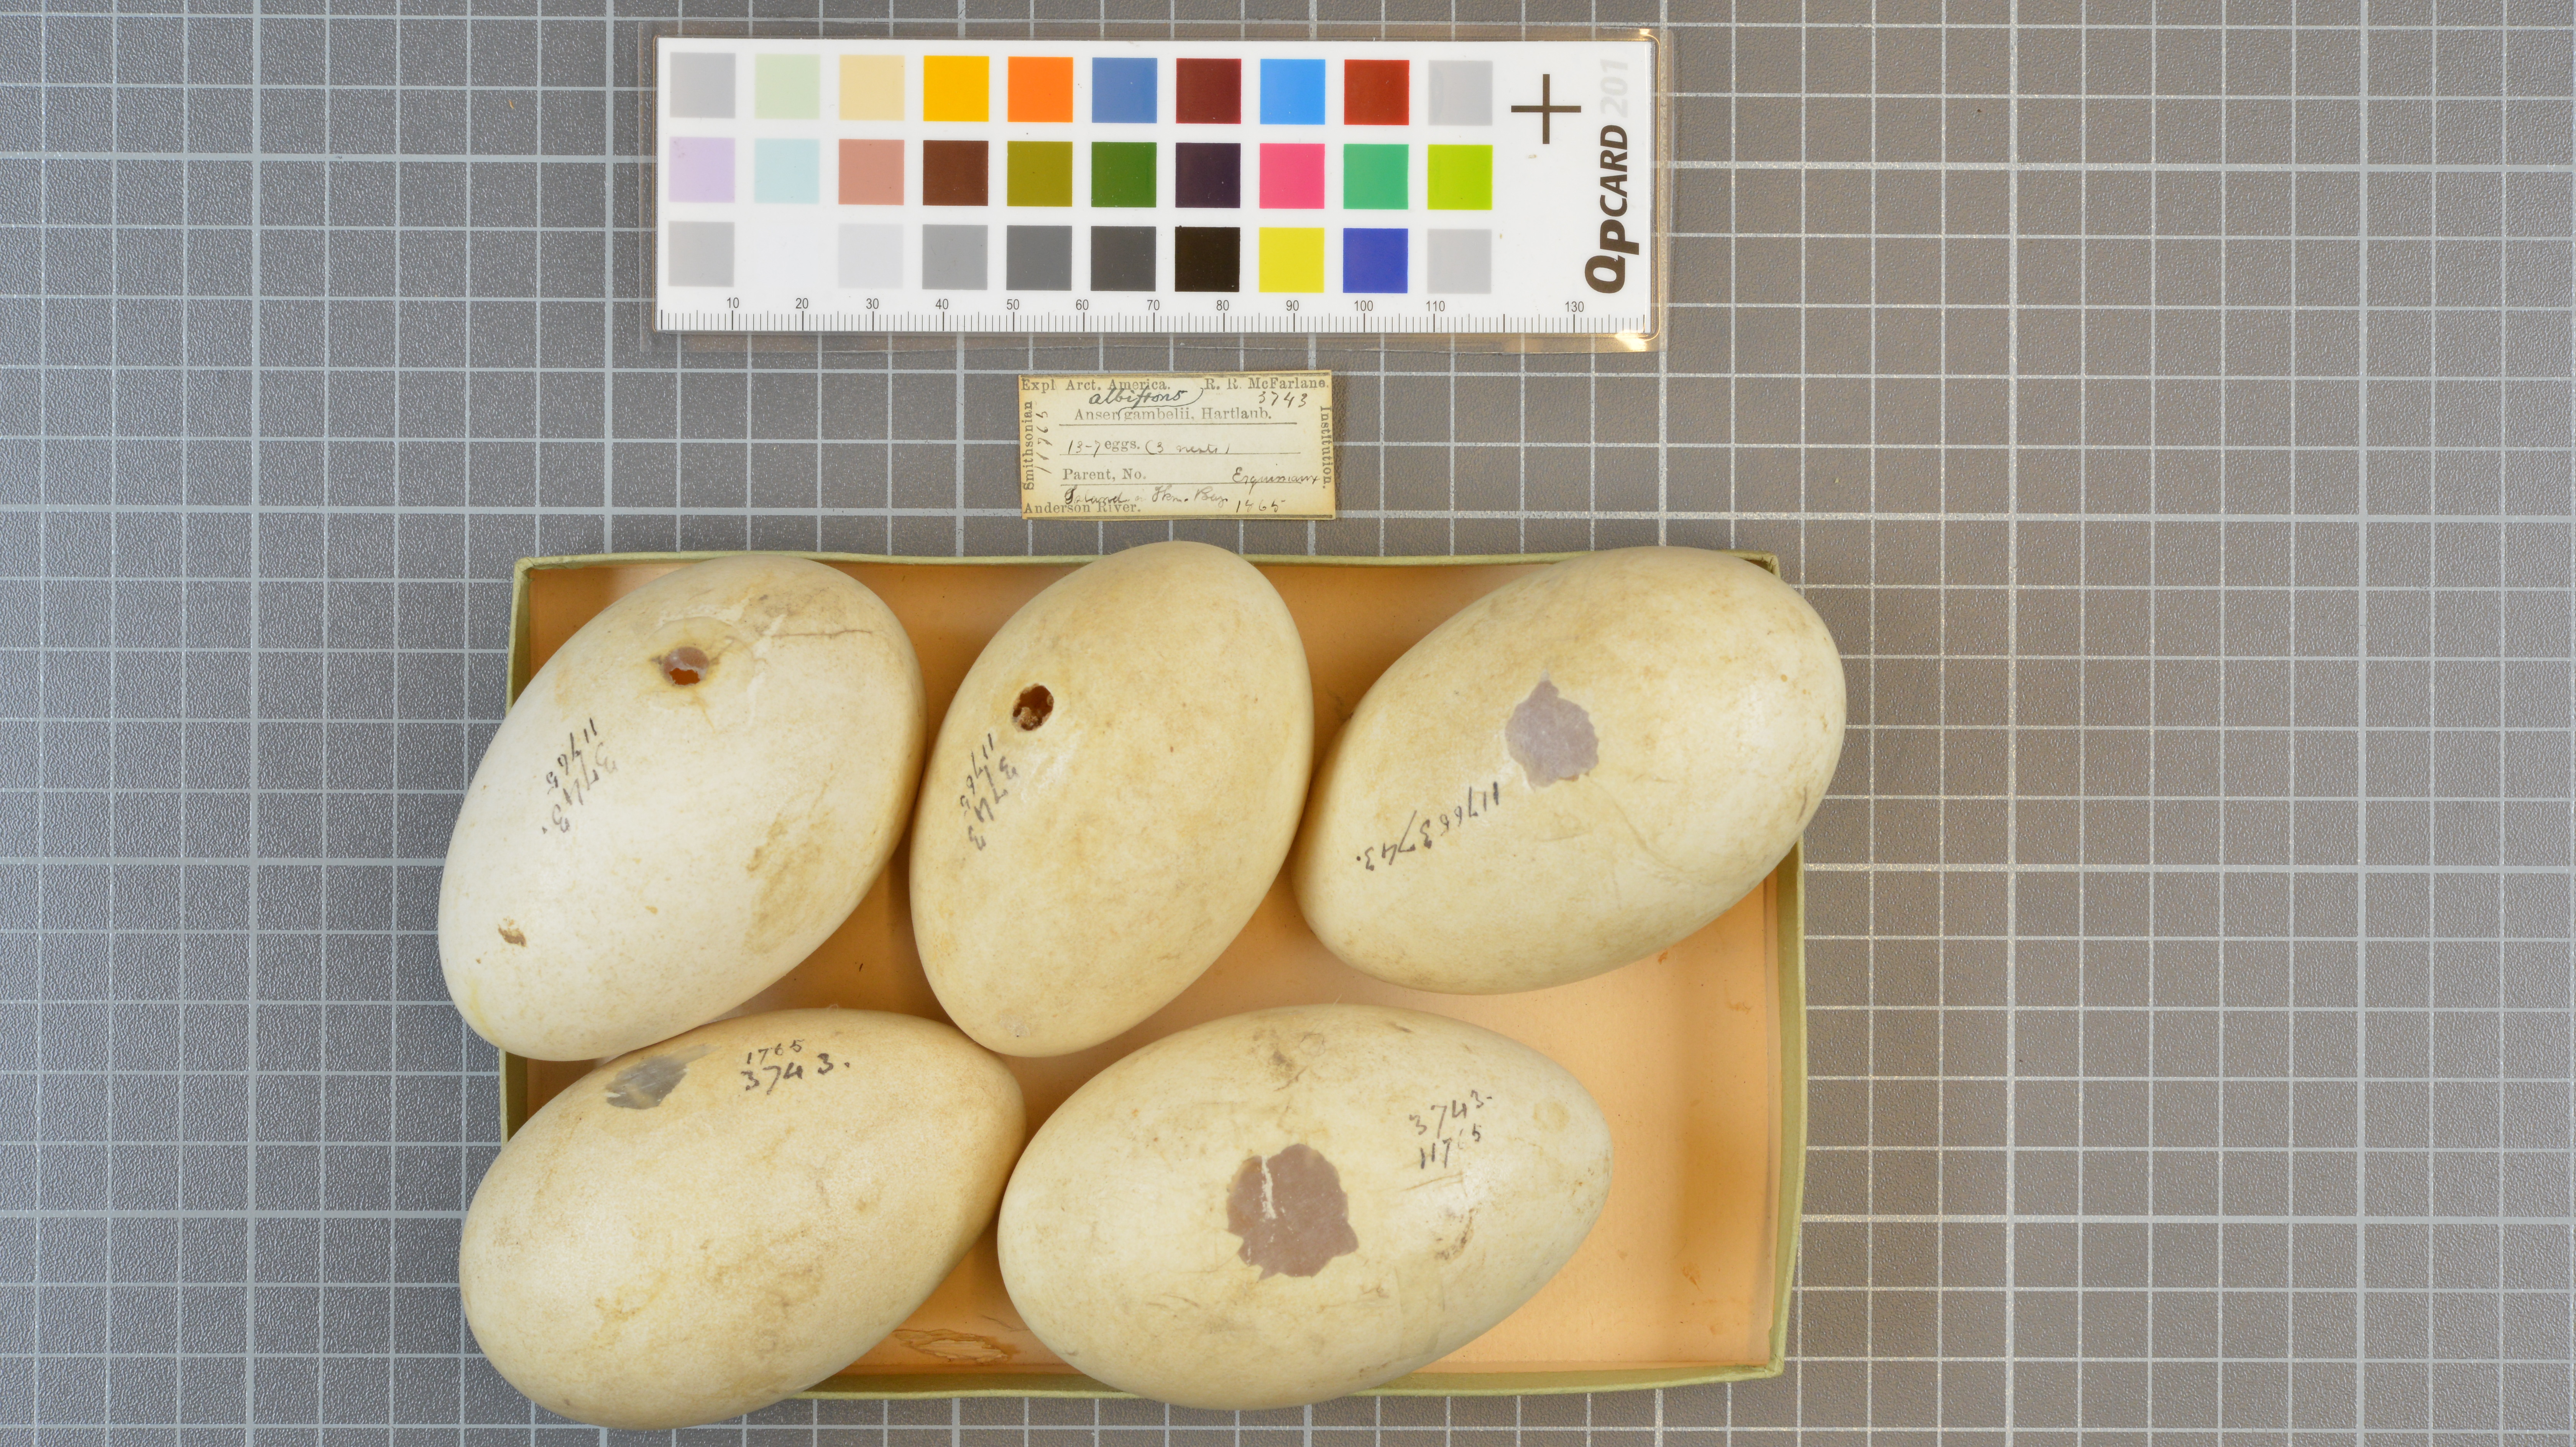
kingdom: Animalia
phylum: Chordata
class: Aves
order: Anseriformes
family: Anatidae
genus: Anser
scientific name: Anser albifrons
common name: Greater white-fronted goose
